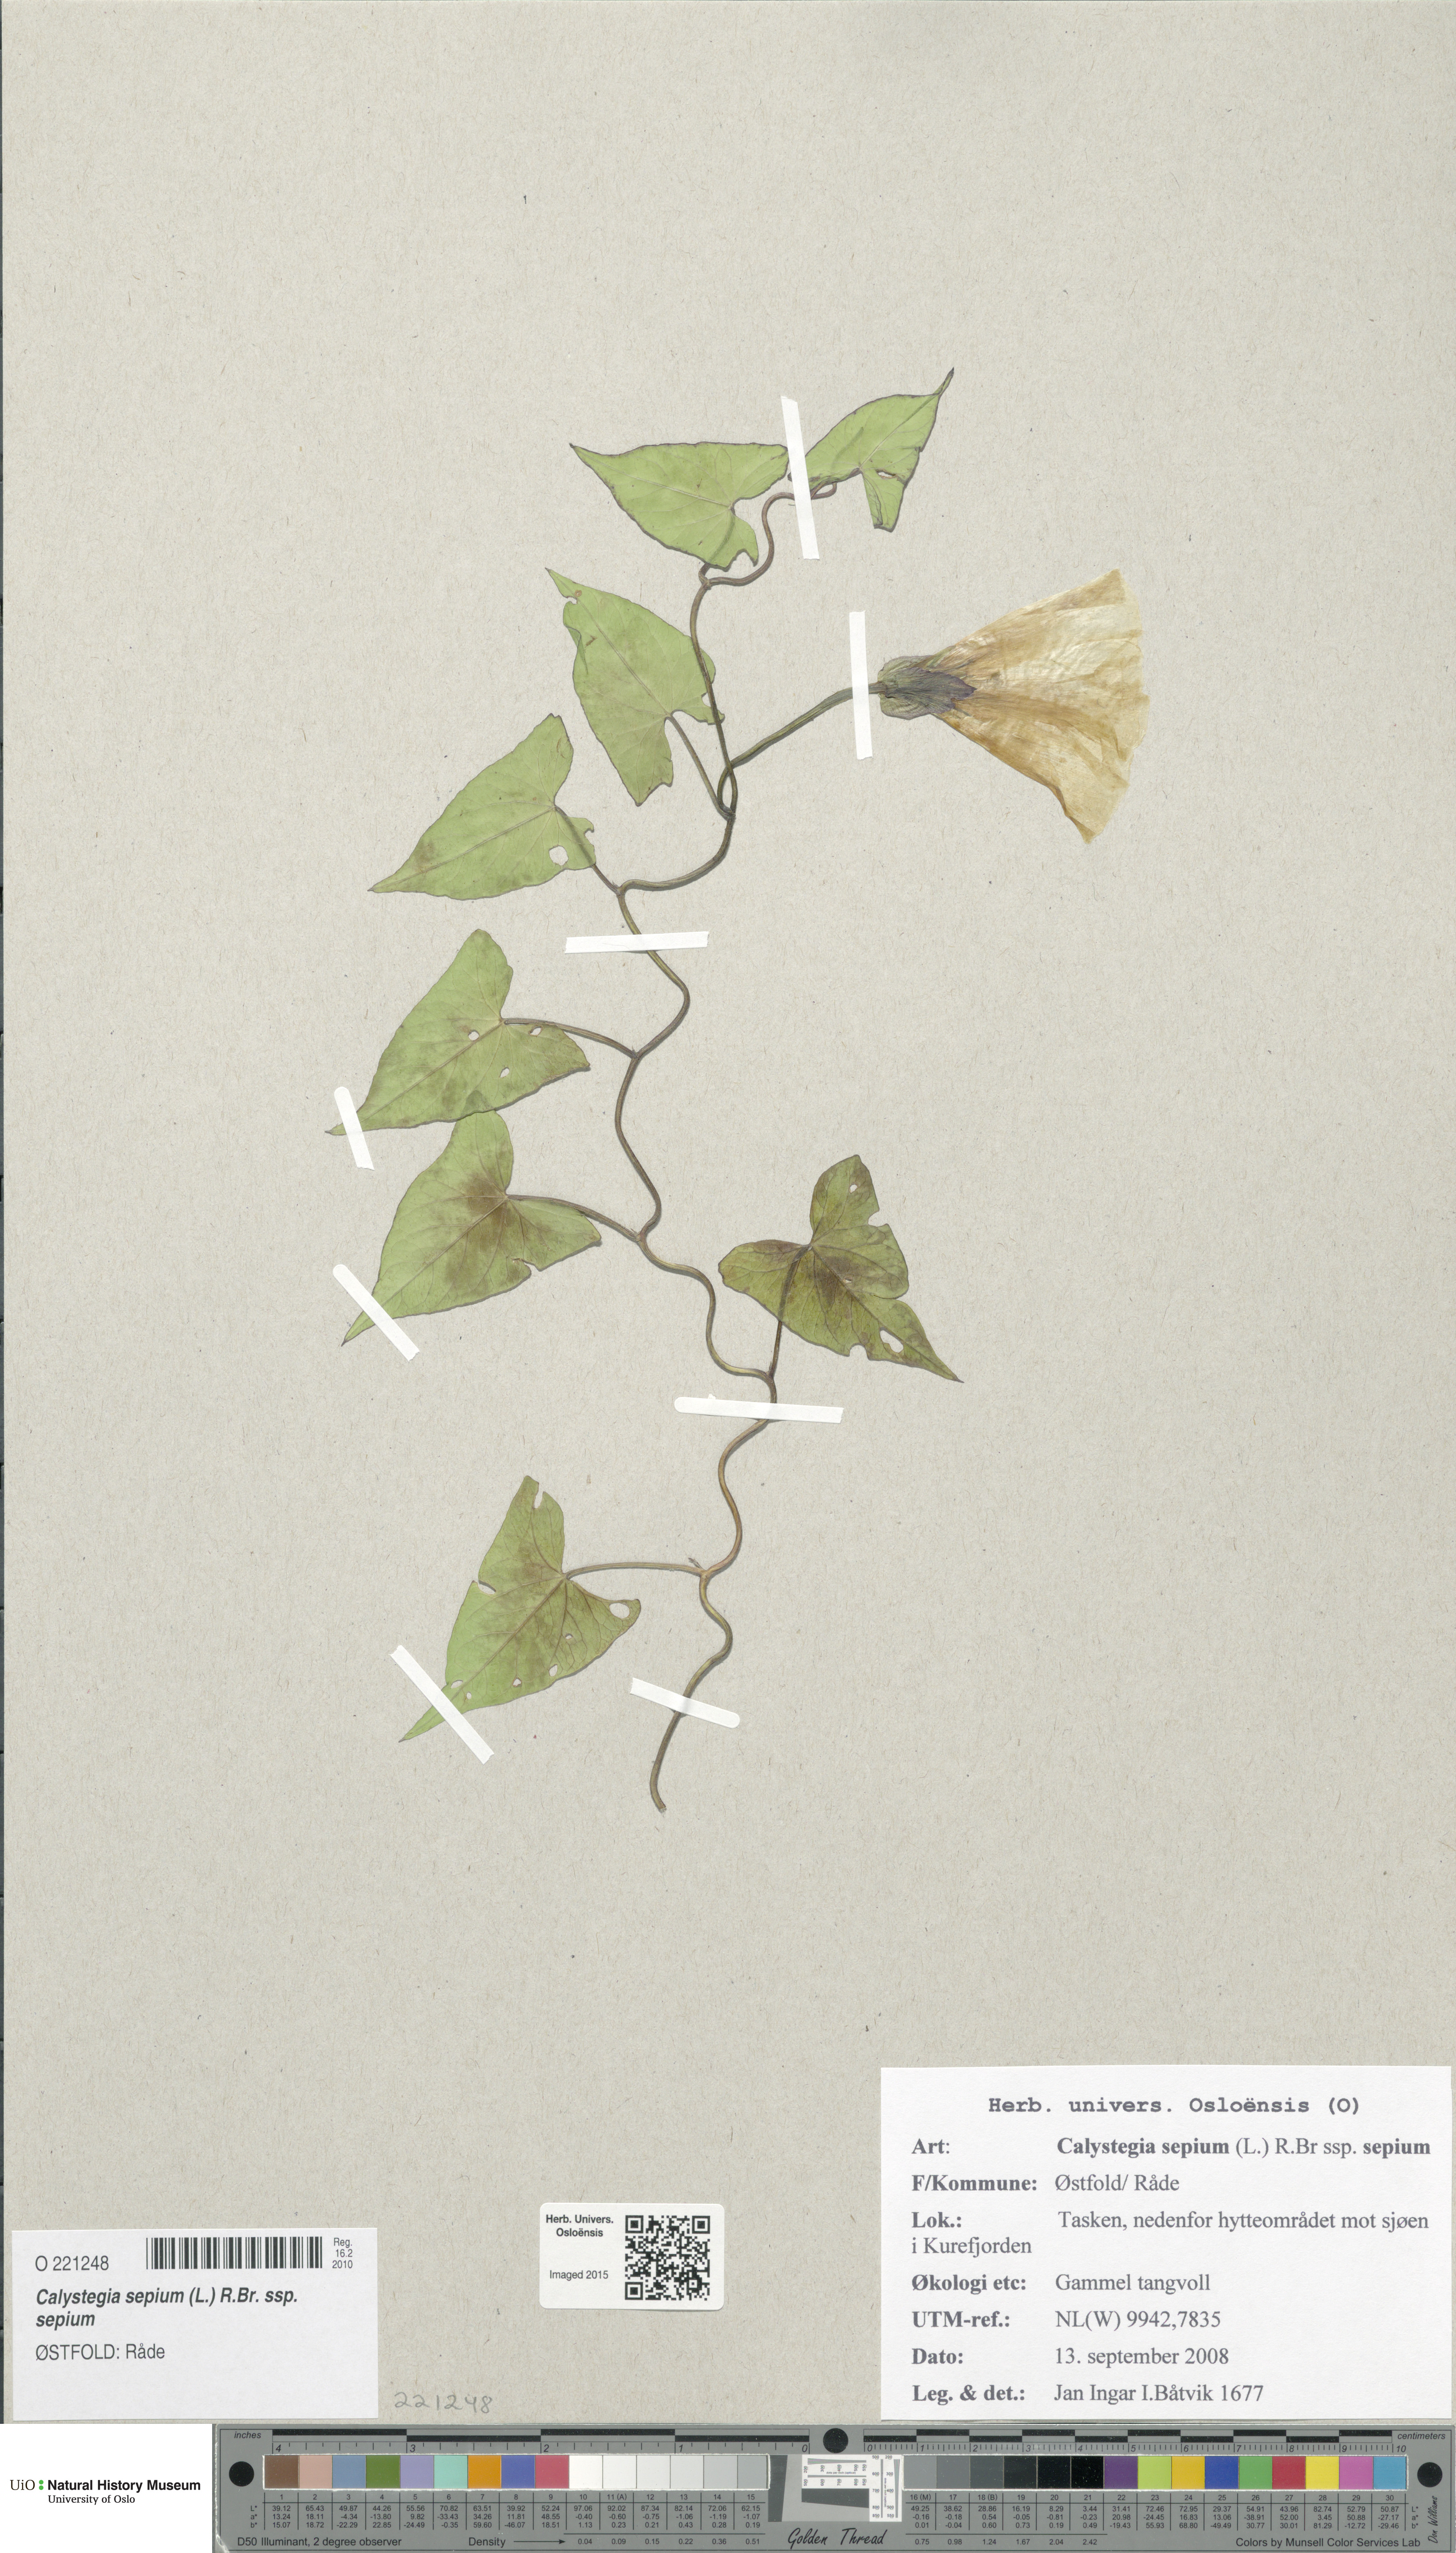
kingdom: Plantae
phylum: Tracheophyta
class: Magnoliopsida
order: Solanales
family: Convolvulaceae
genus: Calystegia
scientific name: Calystegia sepium
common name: Hedge bindweed
